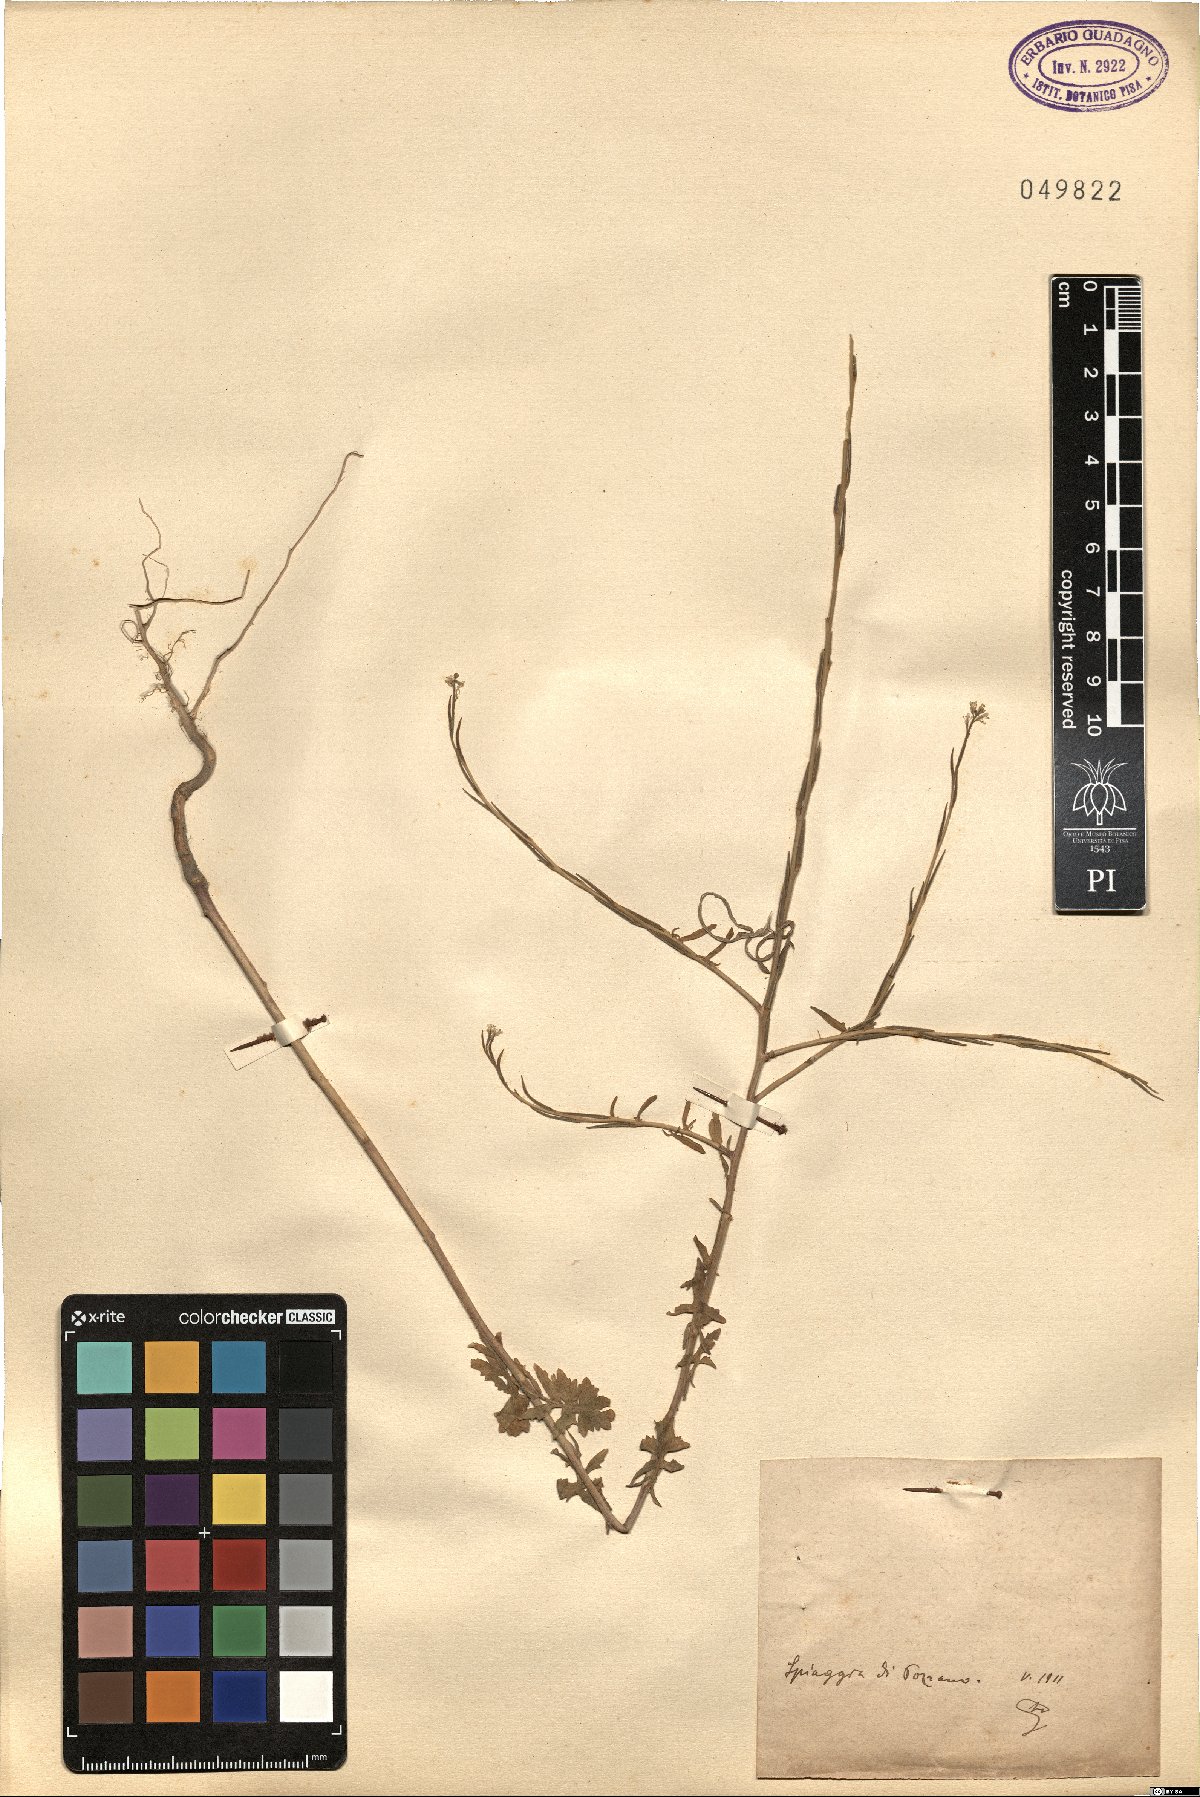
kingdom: Plantae
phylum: Tracheophyta
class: Magnoliopsida
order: Brassicales
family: Brassicaceae
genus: Sisymbrium
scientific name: Sisymbrium
